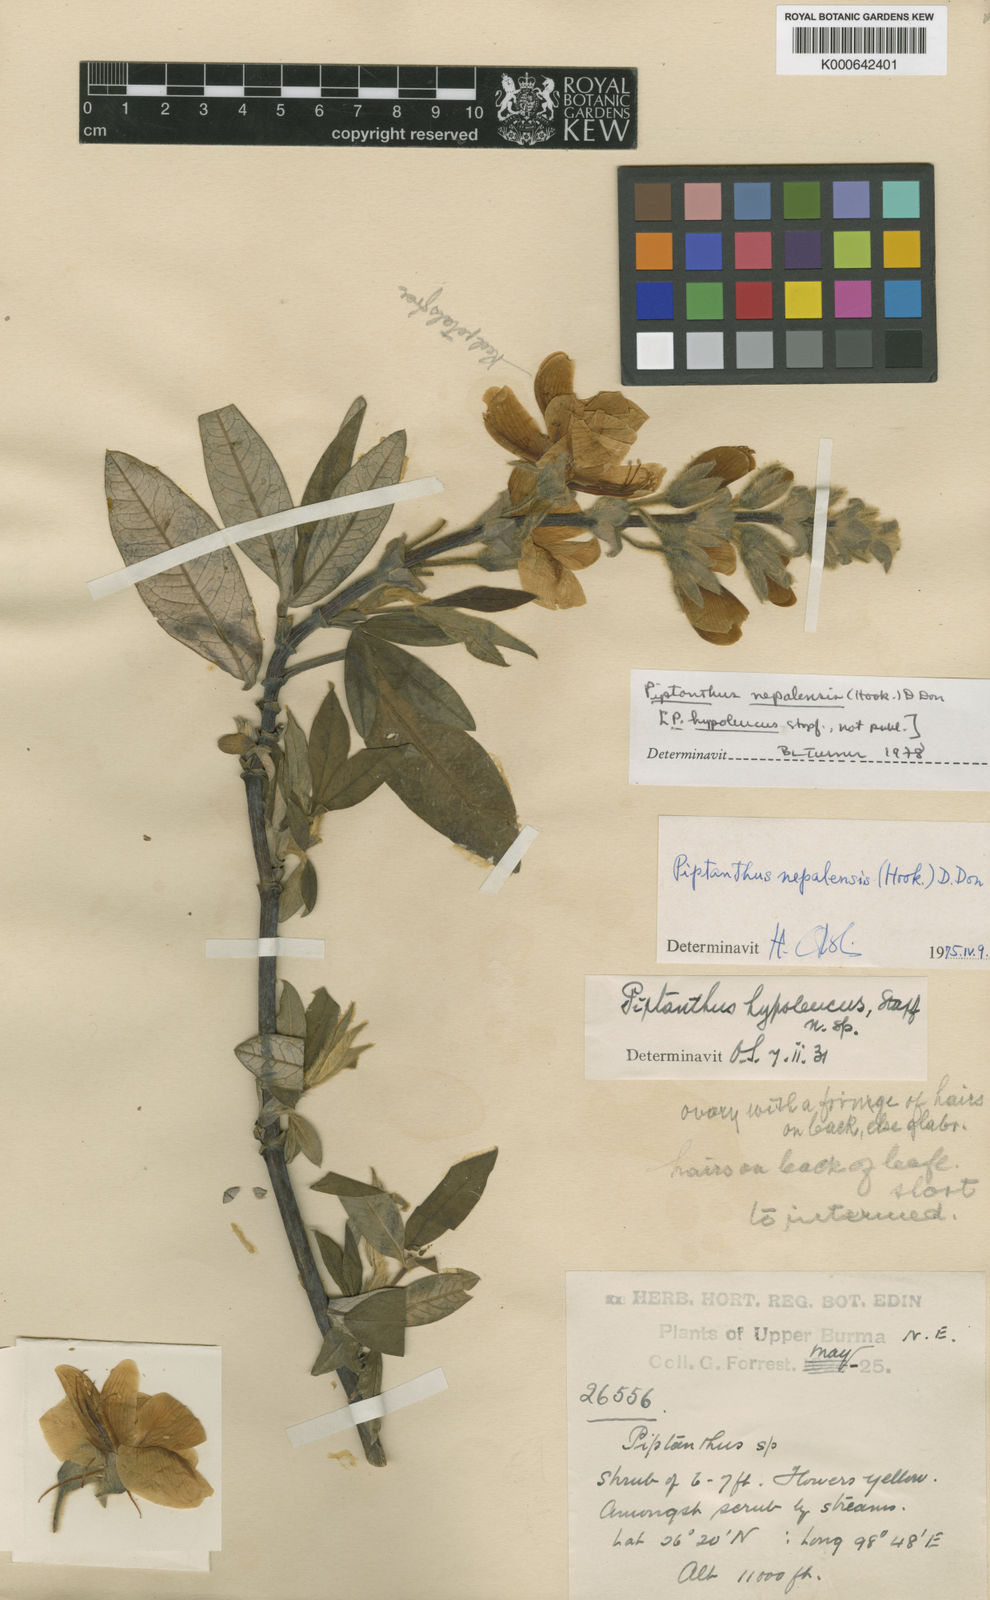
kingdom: Plantae
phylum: Tracheophyta
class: Magnoliopsida
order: Fabales
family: Fabaceae
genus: Piptanthus
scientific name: Piptanthus
